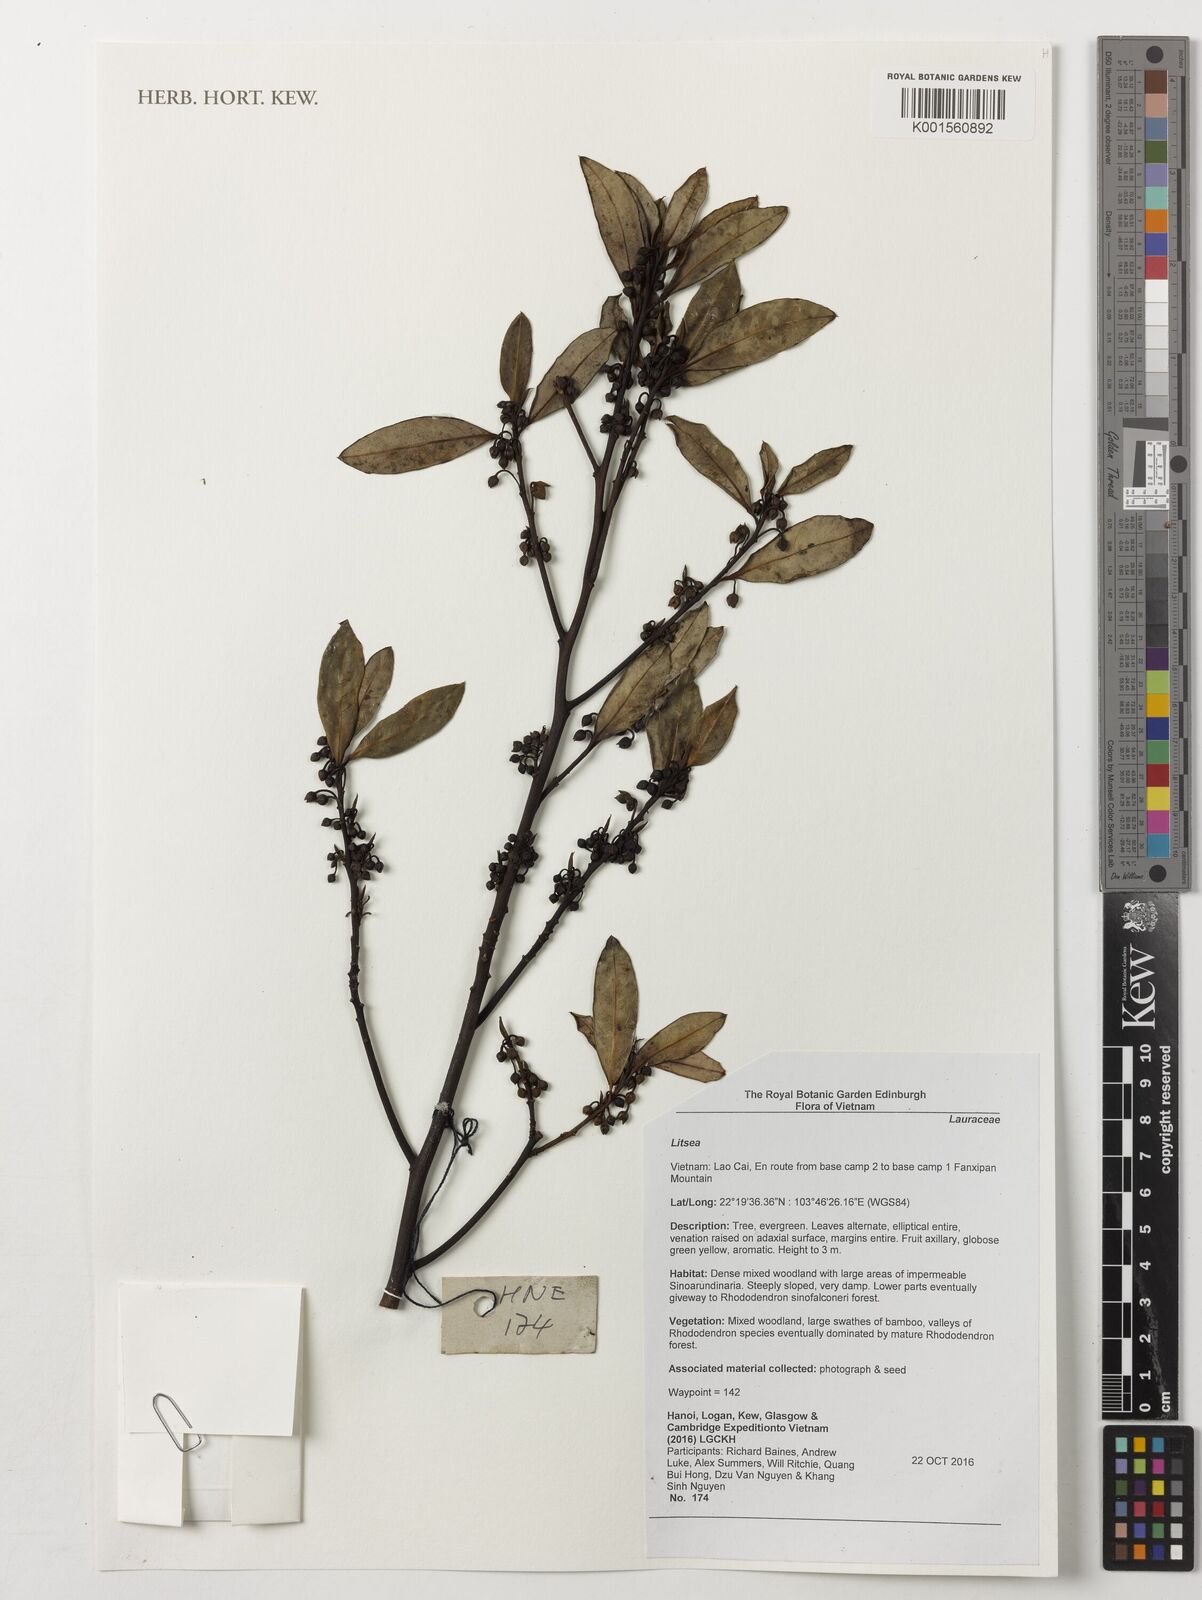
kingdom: Plantae
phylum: Tracheophyta
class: Magnoliopsida
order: Laurales
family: Lauraceae
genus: Litsea
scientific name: Litsea
